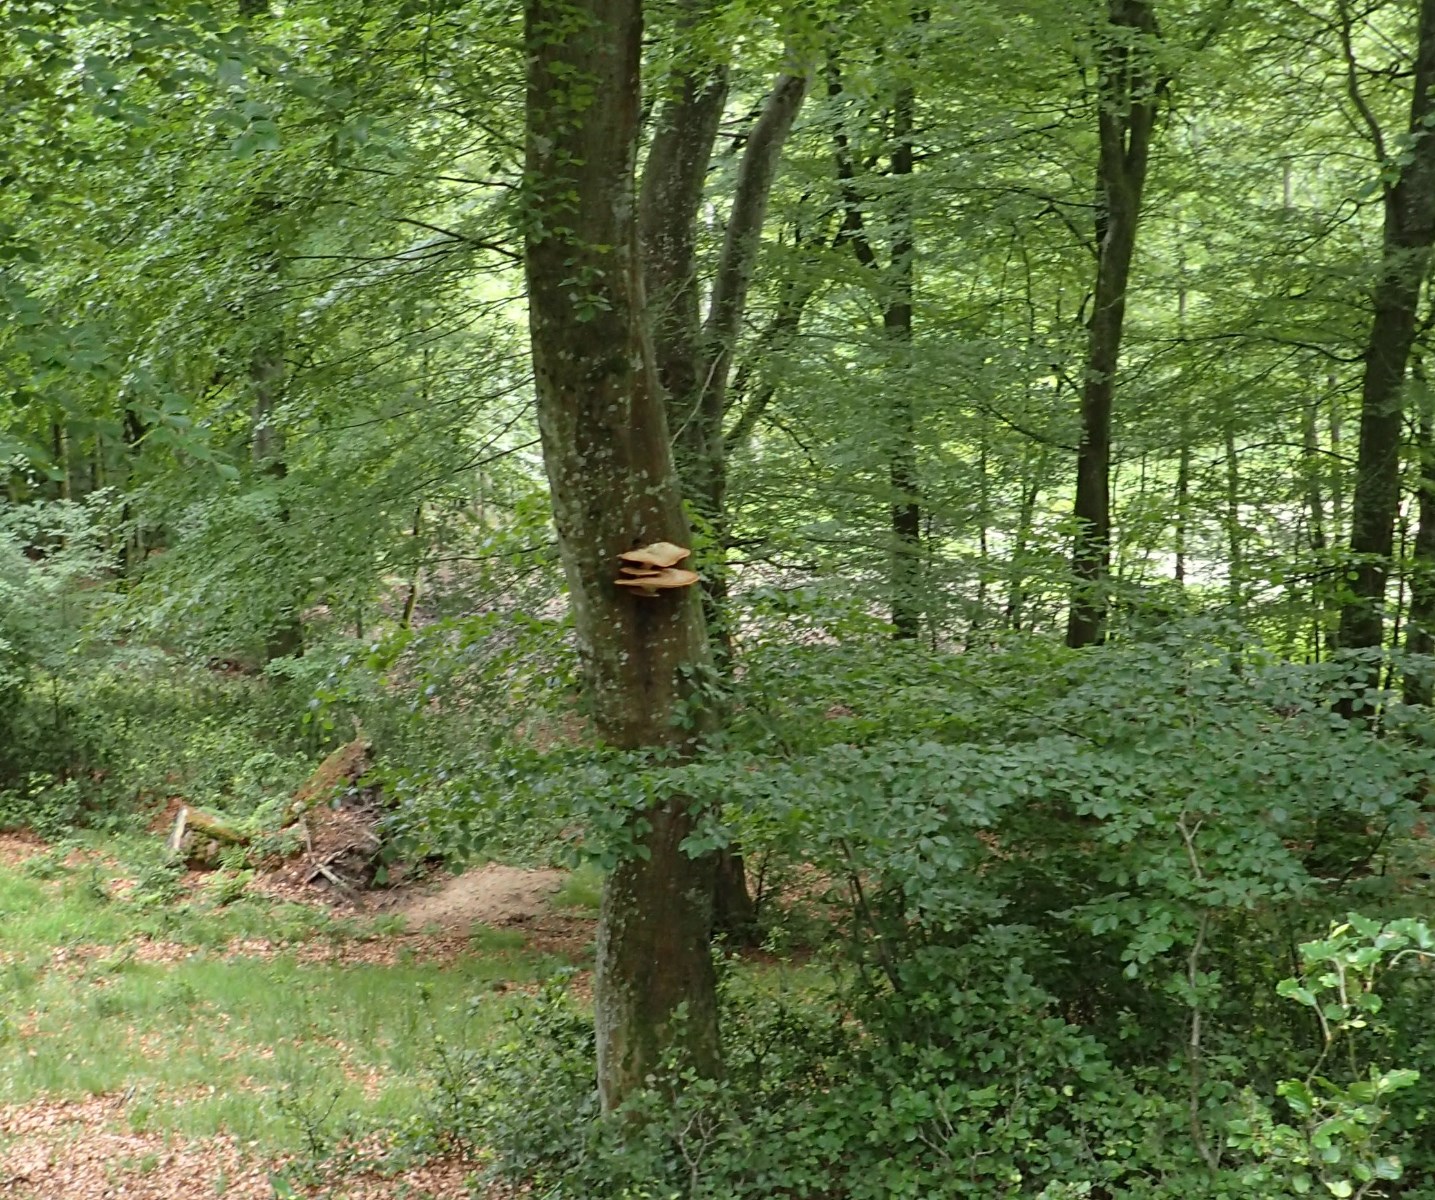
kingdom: Fungi
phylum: Basidiomycota
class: Agaricomycetes
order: Polyporales
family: Polyporaceae
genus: Cerioporus
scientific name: Cerioporus squamosus
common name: skællet stilkporesvamp
